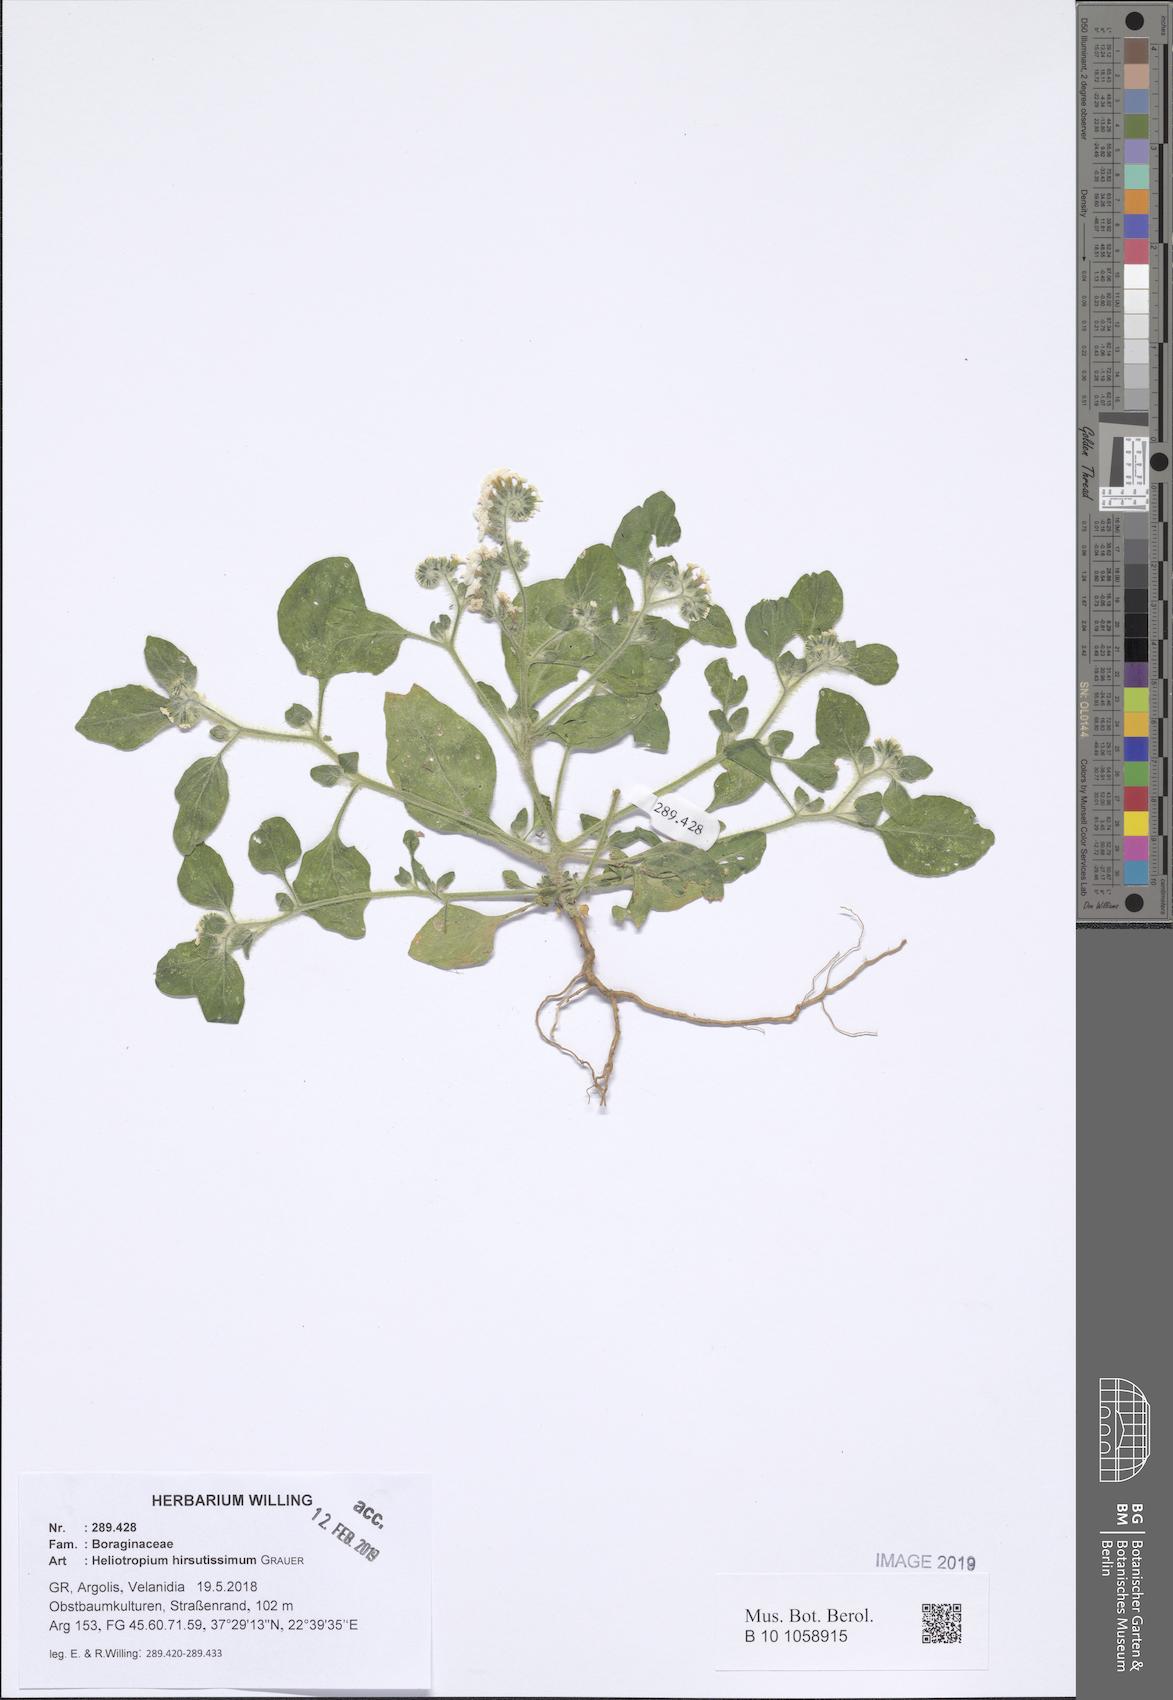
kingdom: Plantae
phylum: Tracheophyta
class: Magnoliopsida
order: Boraginales
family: Heliotropiaceae
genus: Heliotropium
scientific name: Heliotropium hirsutissimum
